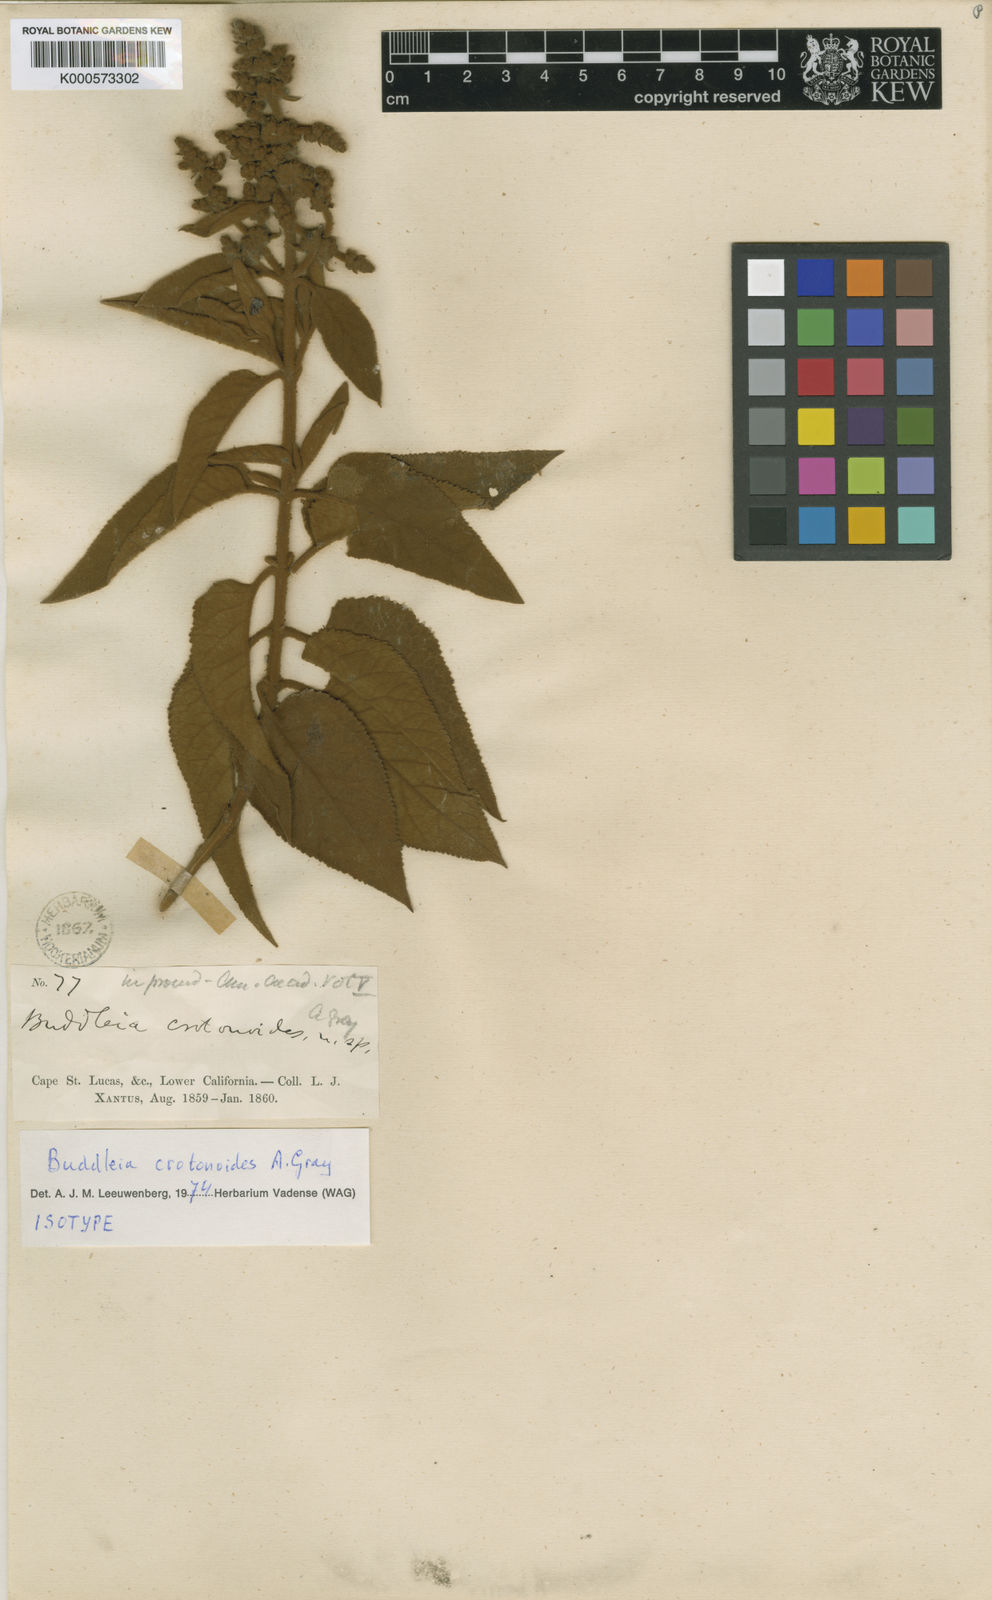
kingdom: Plantae
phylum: Tracheophyta
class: Magnoliopsida
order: Lamiales
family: Scrophulariaceae
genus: Buddleja
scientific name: Buddleja crotonoides
